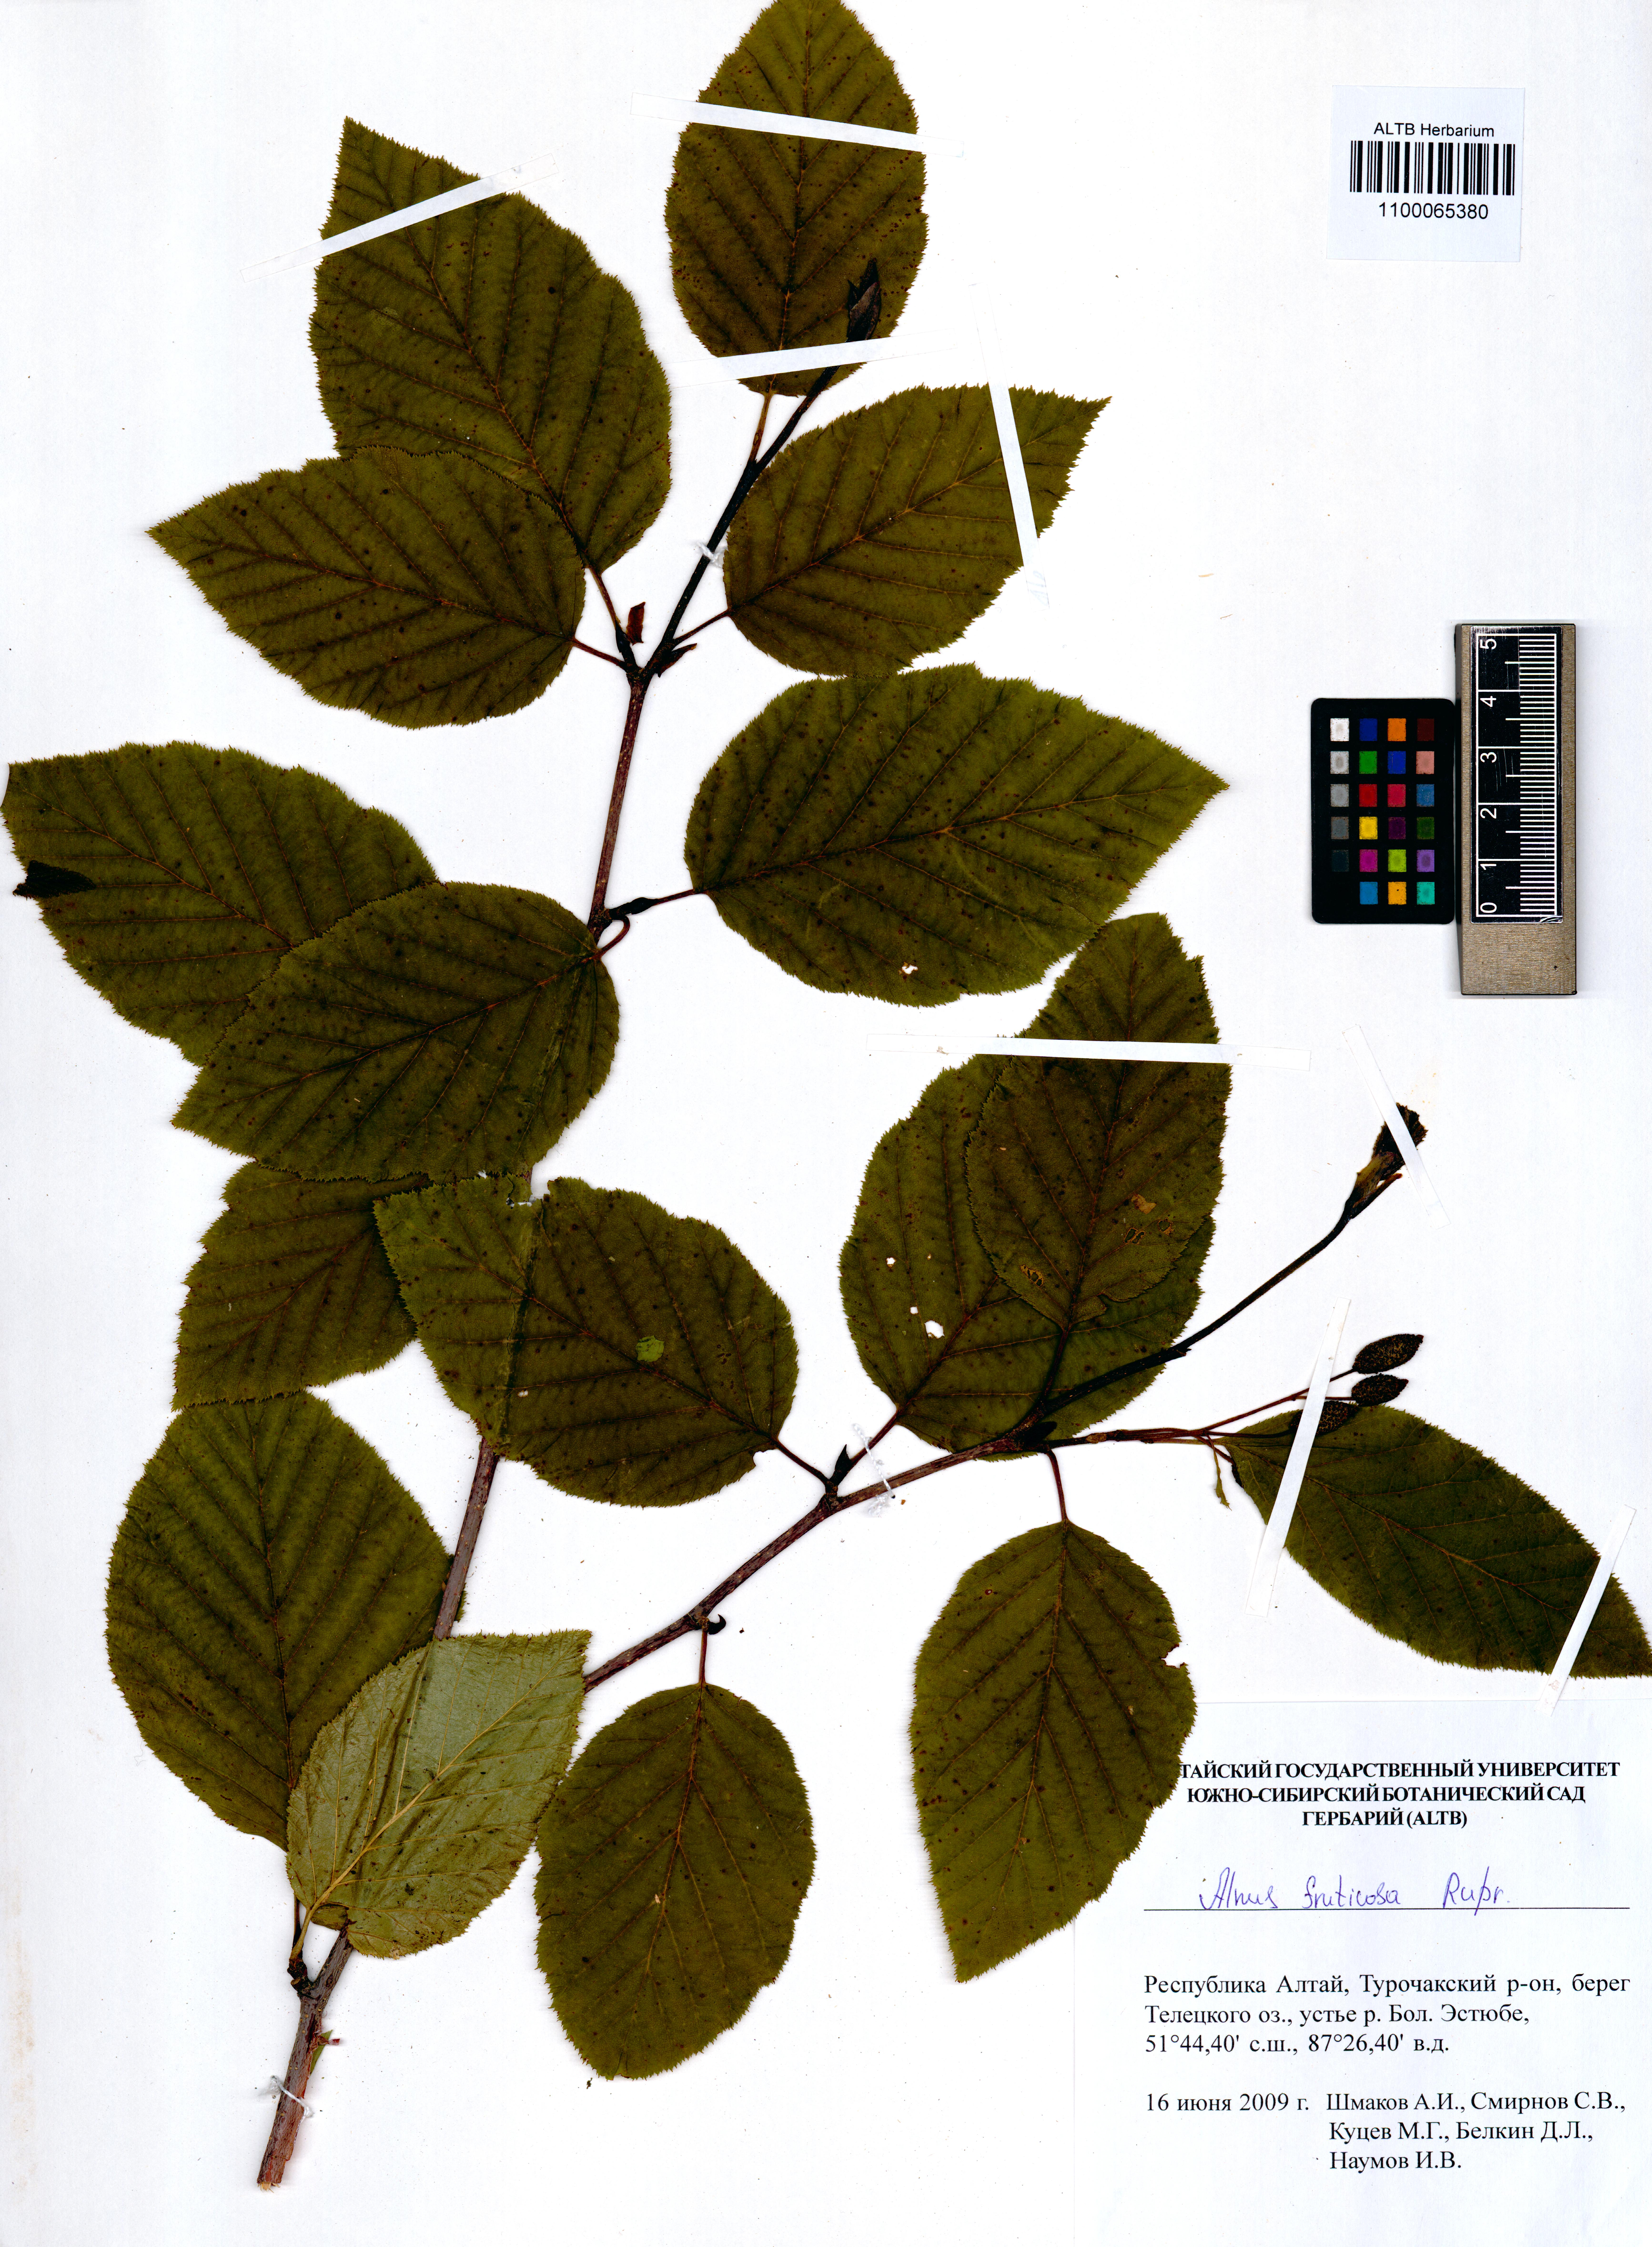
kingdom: Plantae
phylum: Tracheophyta
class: Magnoliopsida
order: Fagales
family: Betulaceae
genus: Alnus
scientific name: Alnus alnobetula
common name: Green alder
